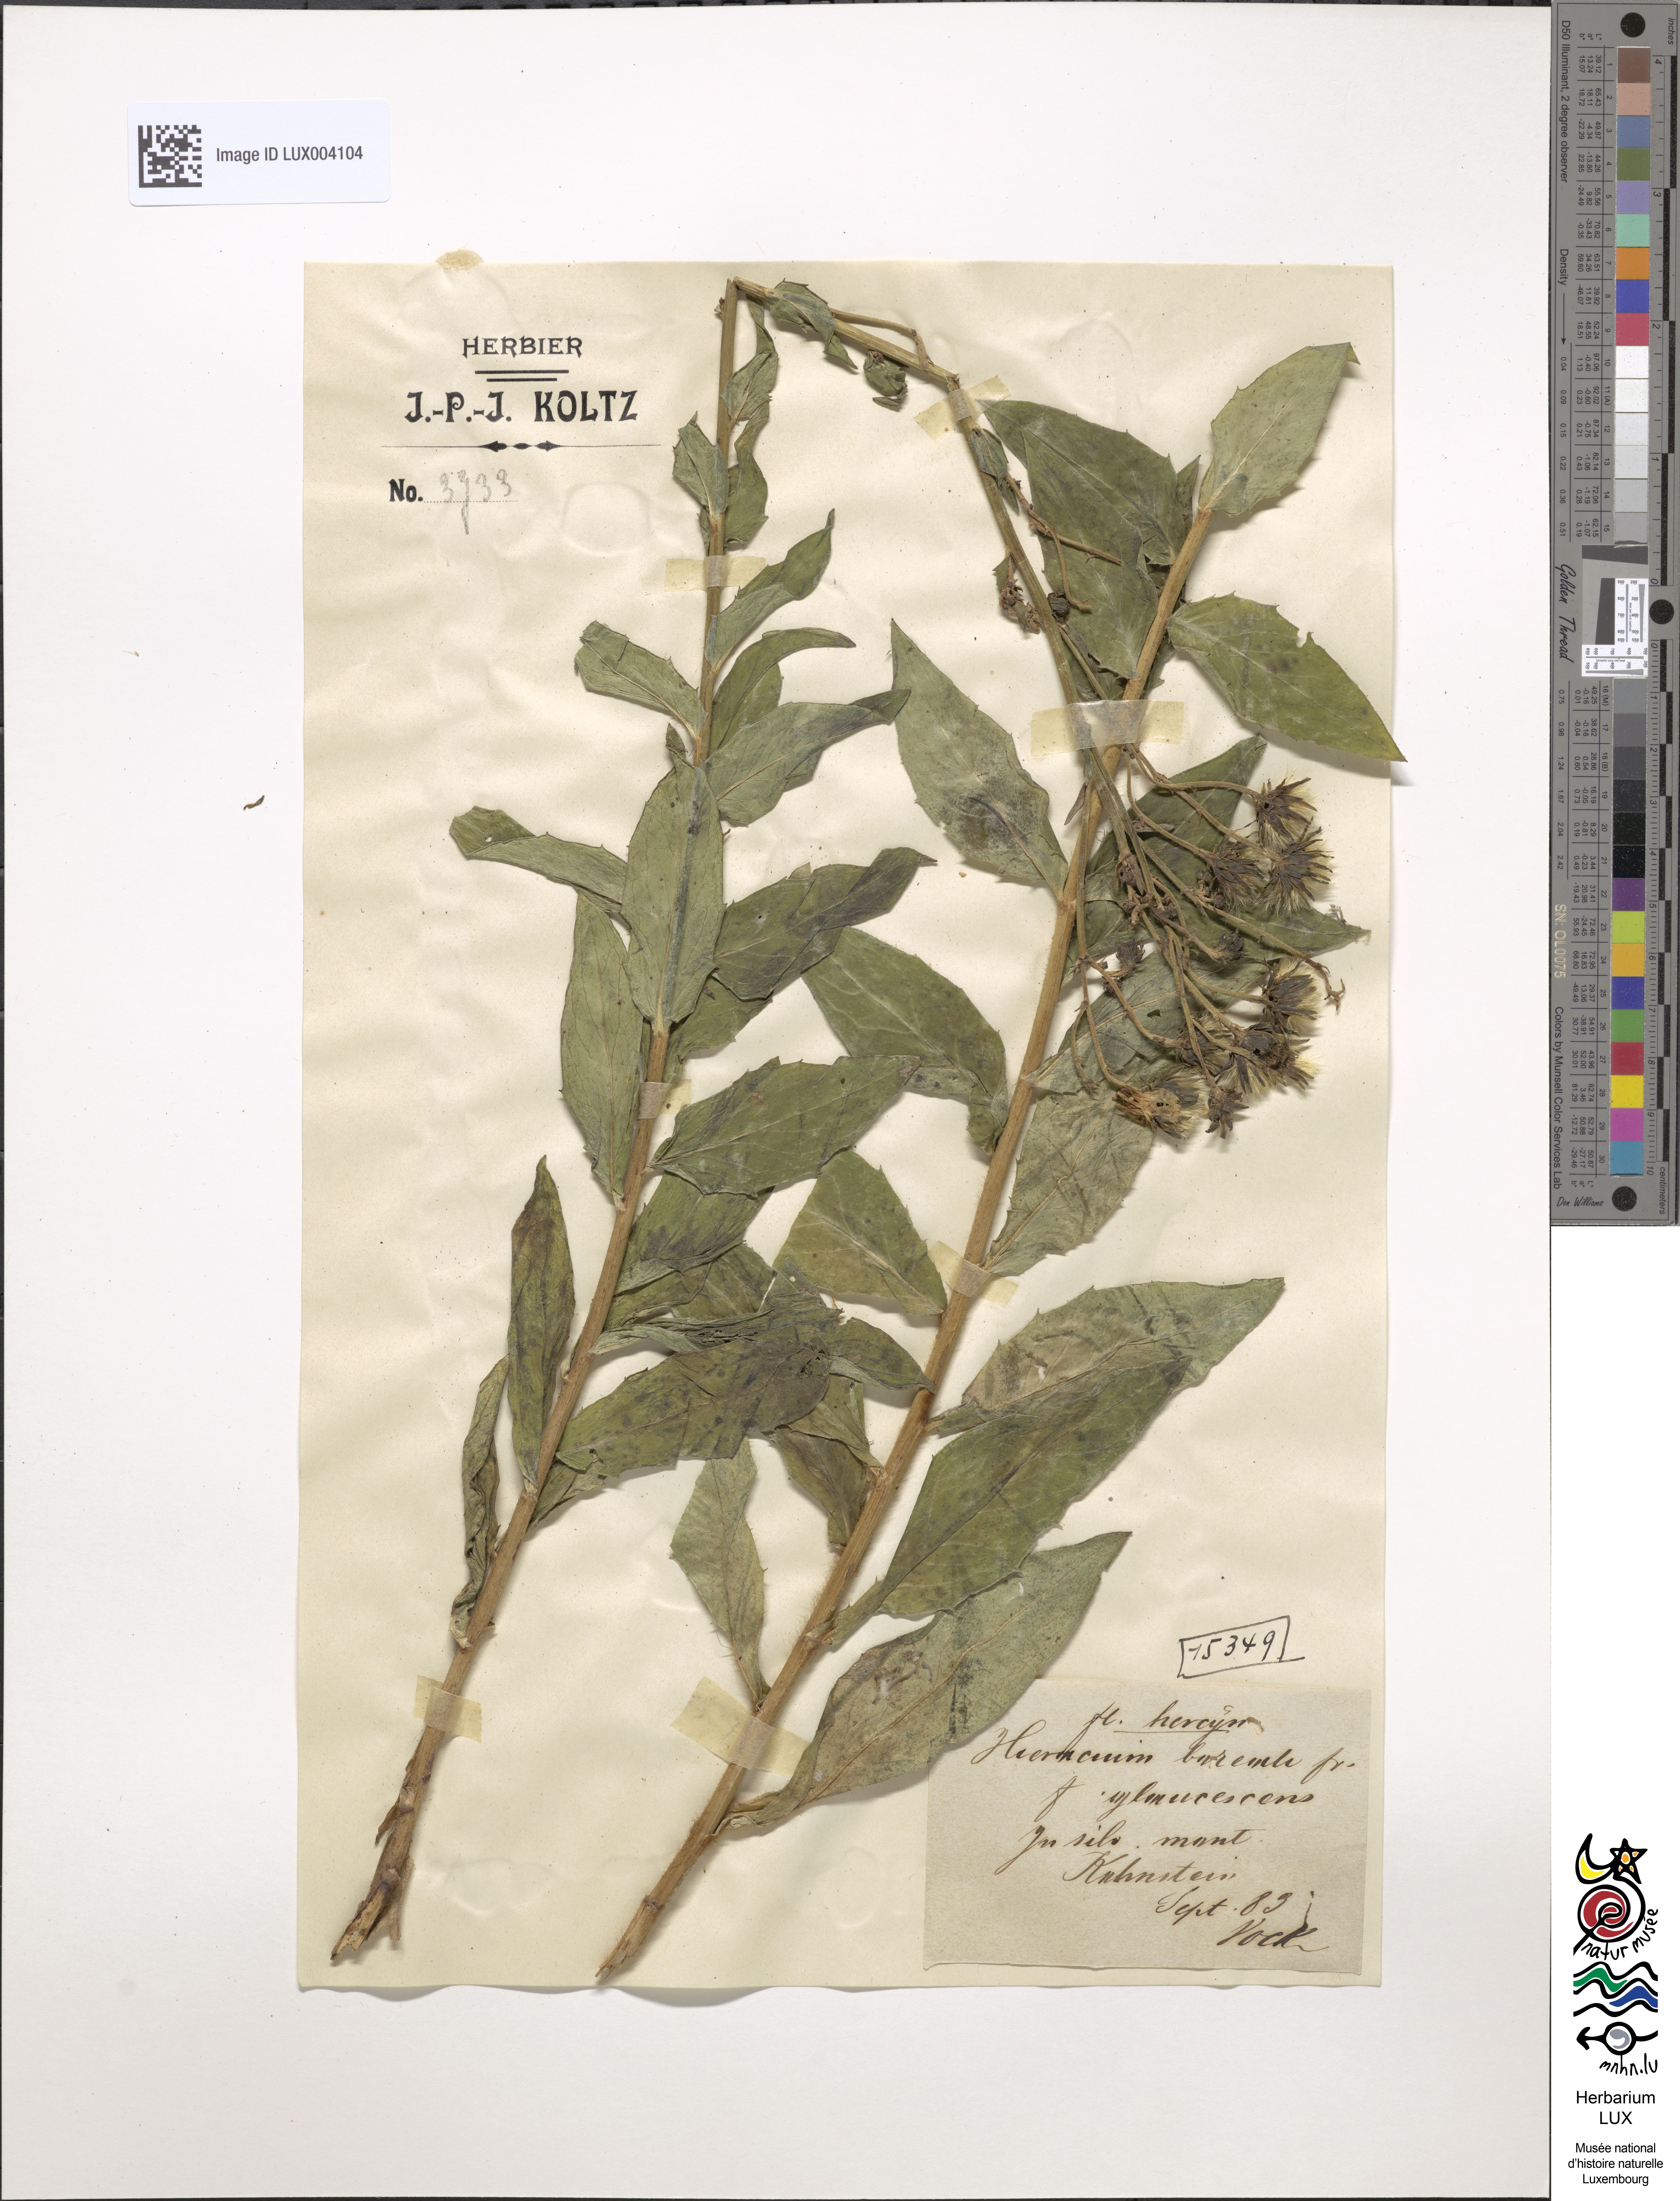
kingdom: Plantae
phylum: Tracheophyta
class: Magnoliopsida
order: Asterales
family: Asteraceae
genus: Hieracium
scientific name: Hieracium sabaudum
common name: New england hawkweed
